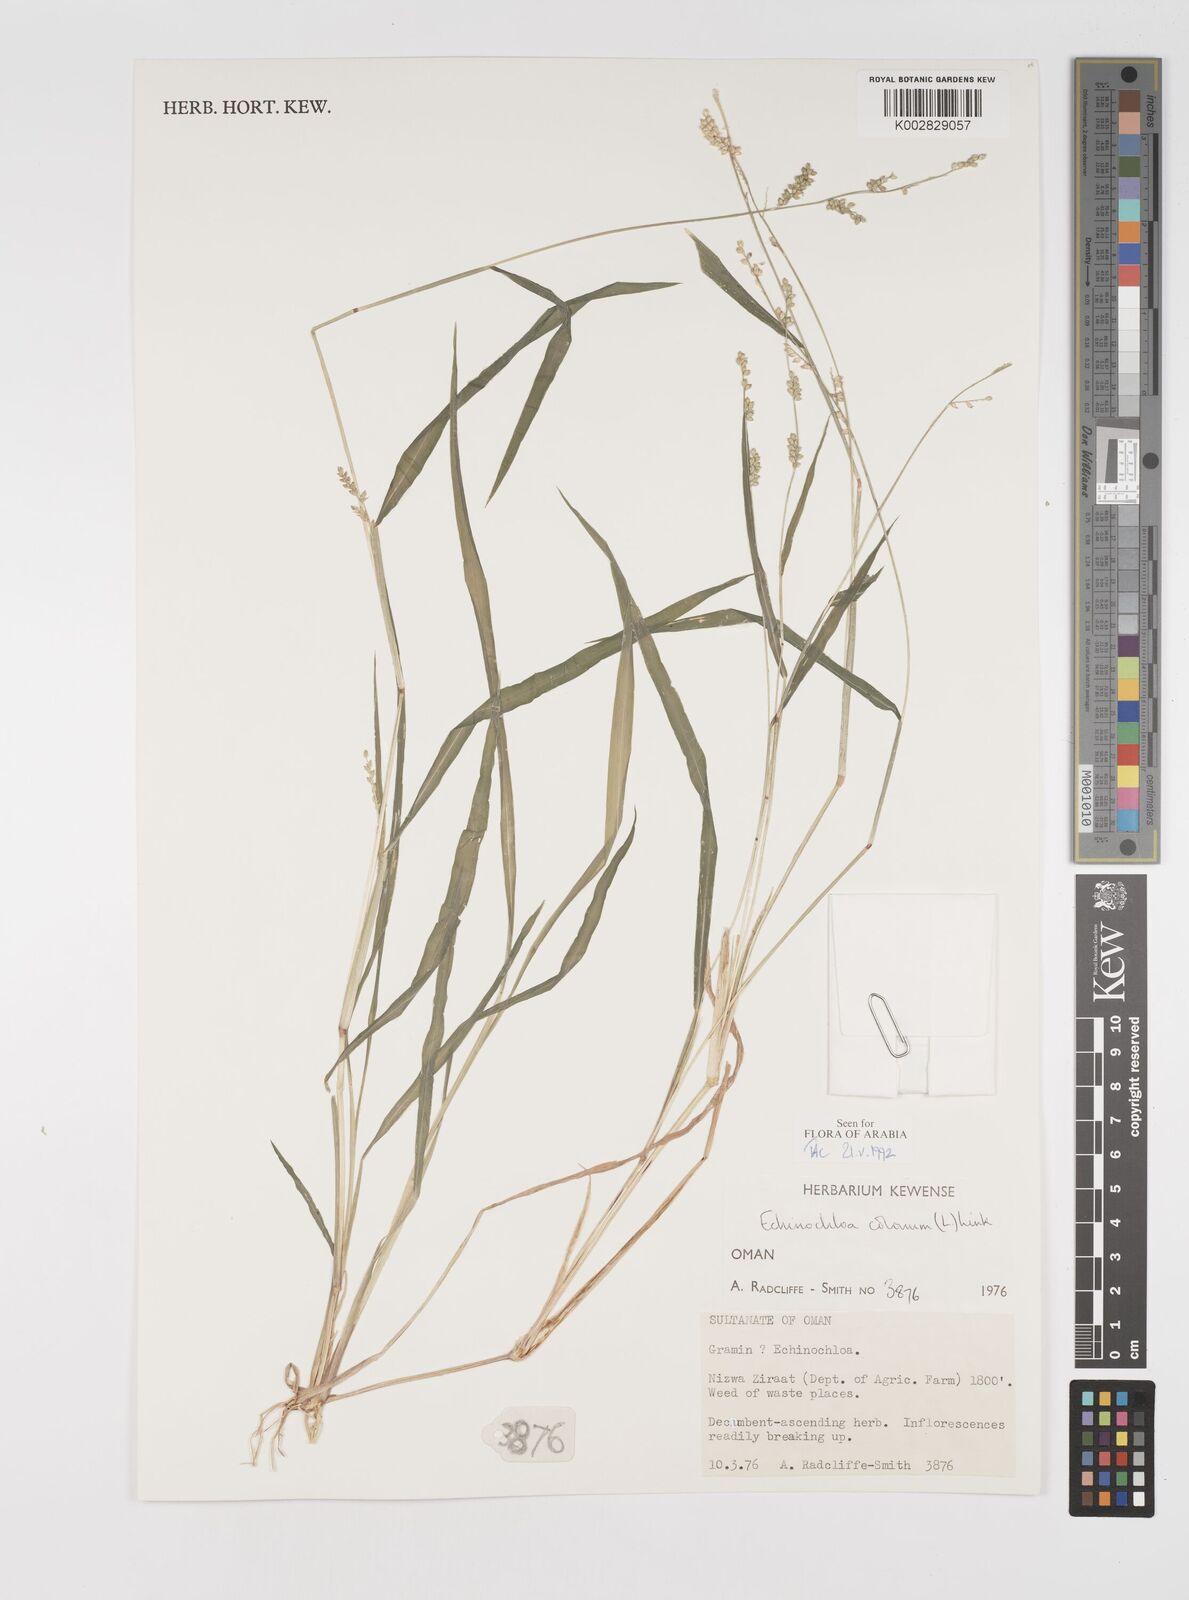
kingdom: Plantae
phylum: Tracheophyta
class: Liliopsida
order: Poales
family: Poaceae
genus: Echinochloa
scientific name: Echinochloa colonum
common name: Jungle rice
